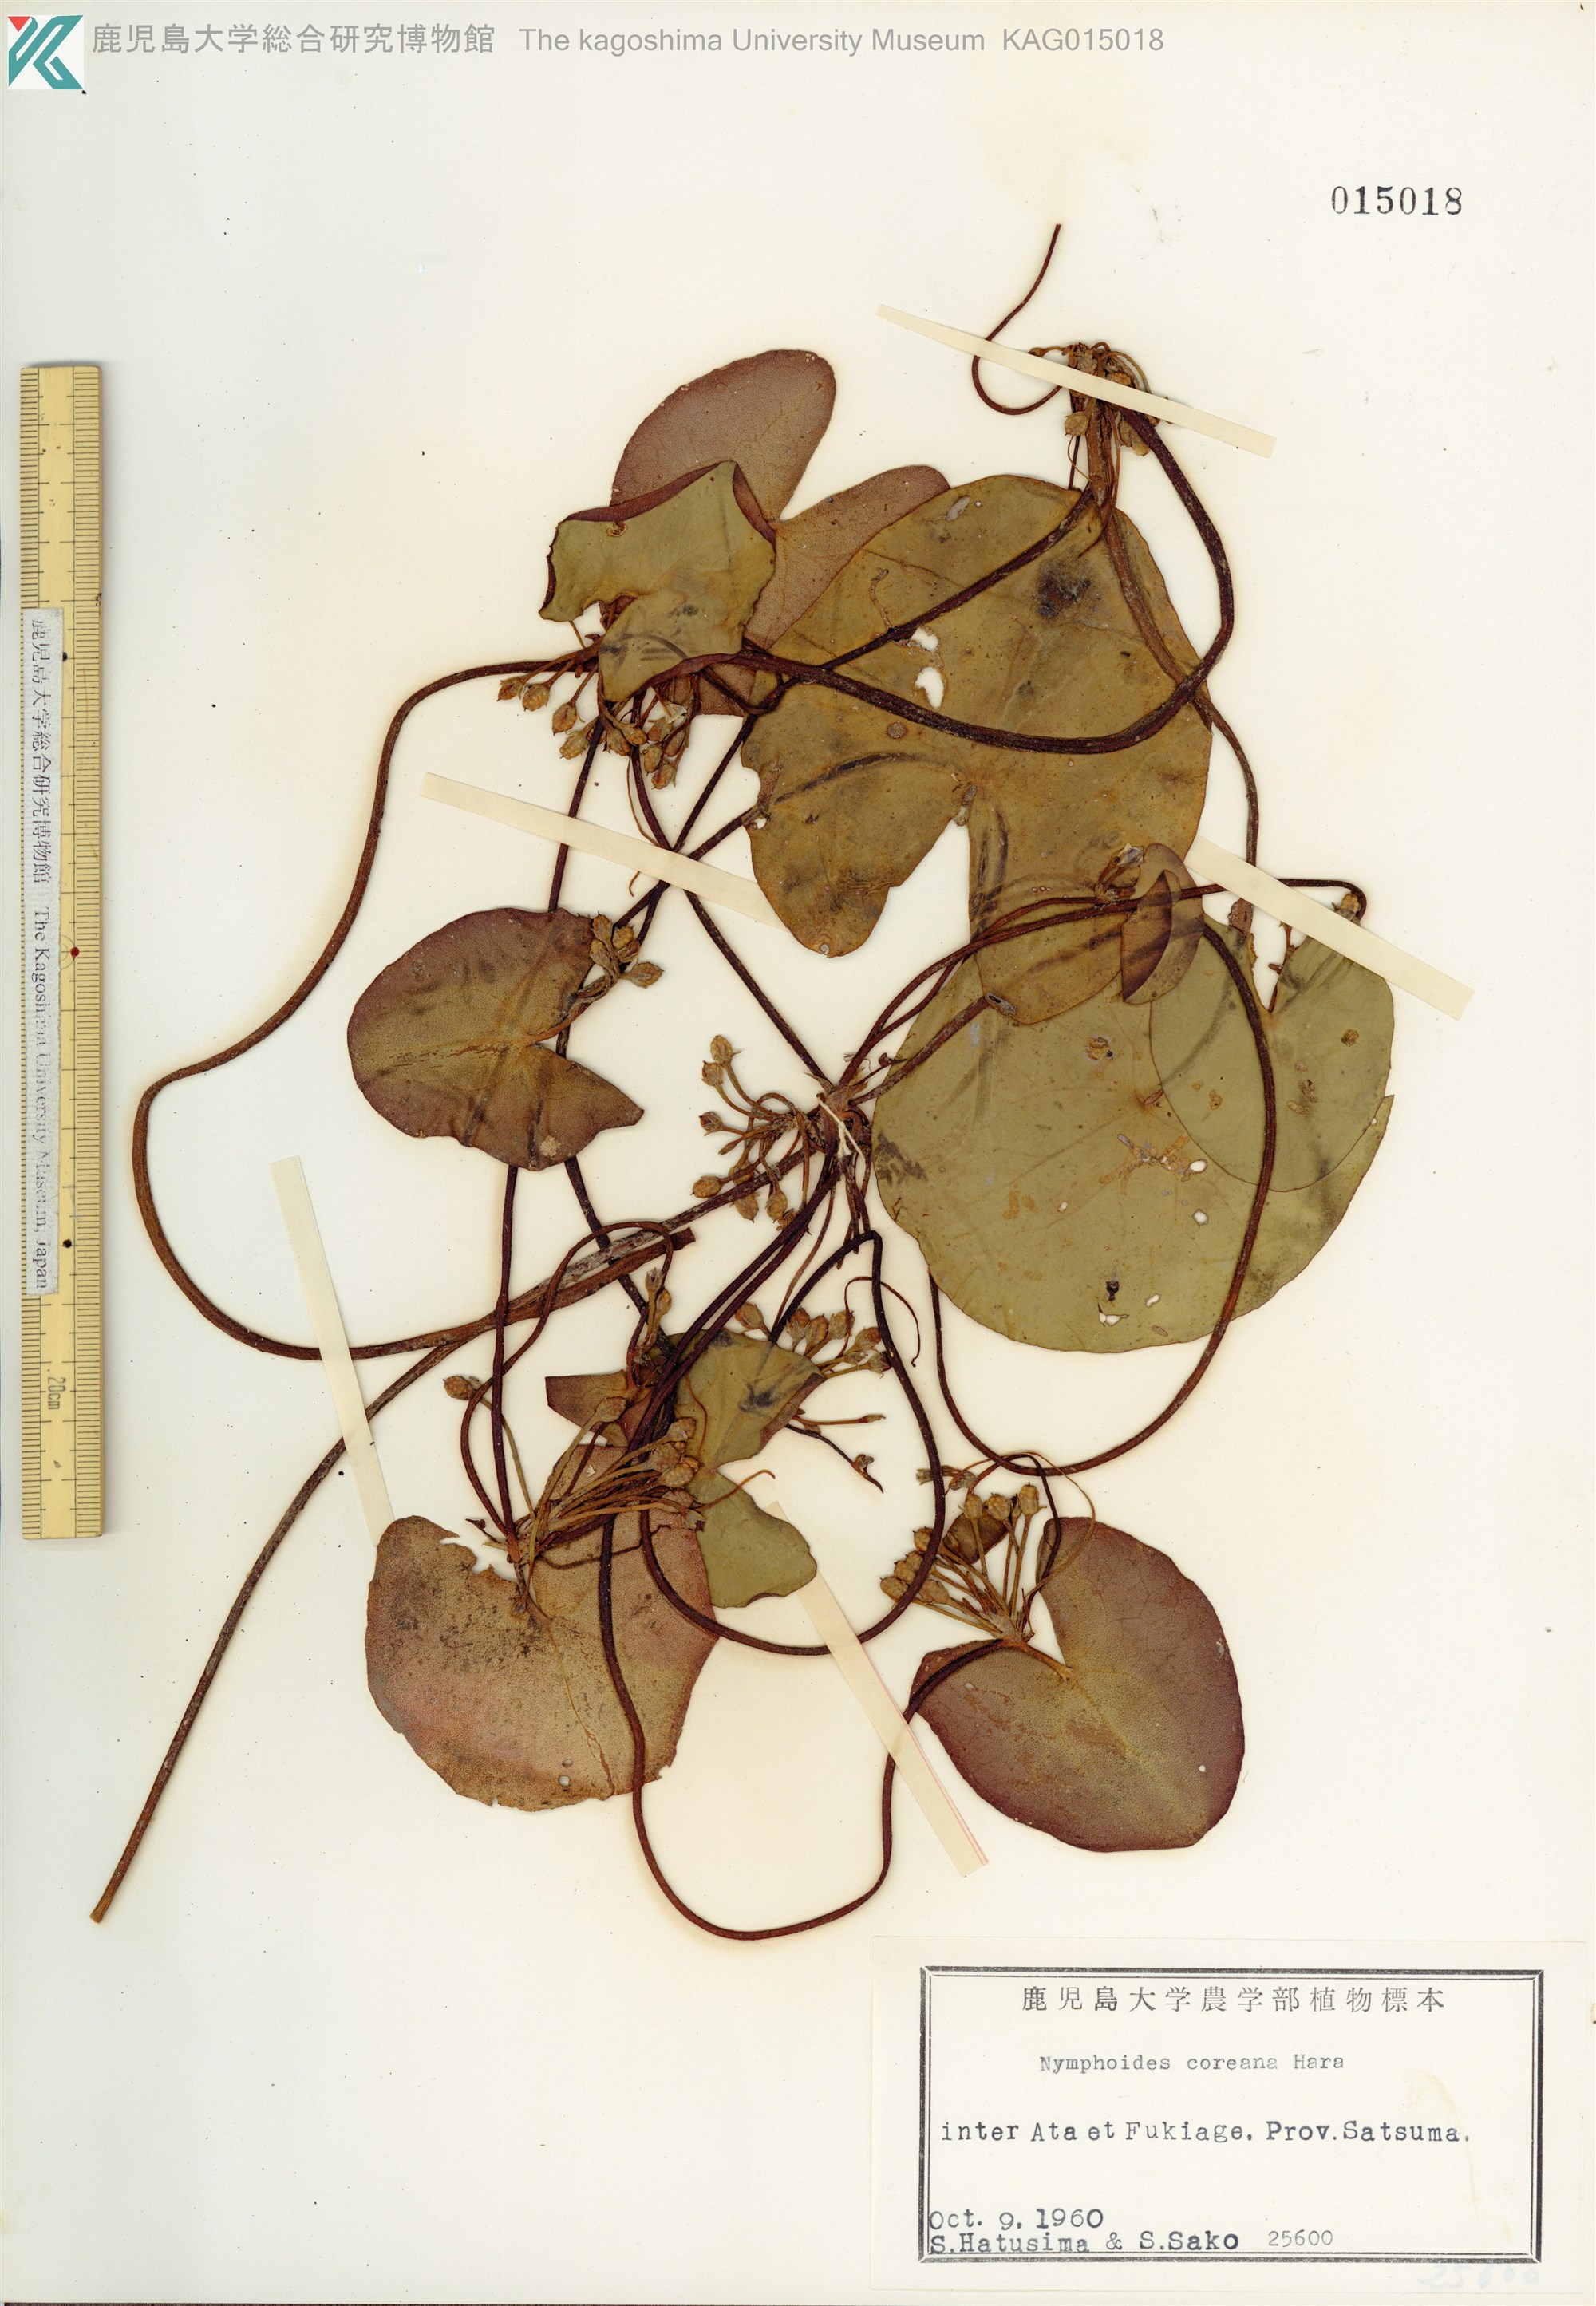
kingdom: Plantae
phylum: Tracheophyta
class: Magnoliopsida
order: Asterales
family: Menyanthaceae
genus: Nymphoides
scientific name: Nymphoides coreana
